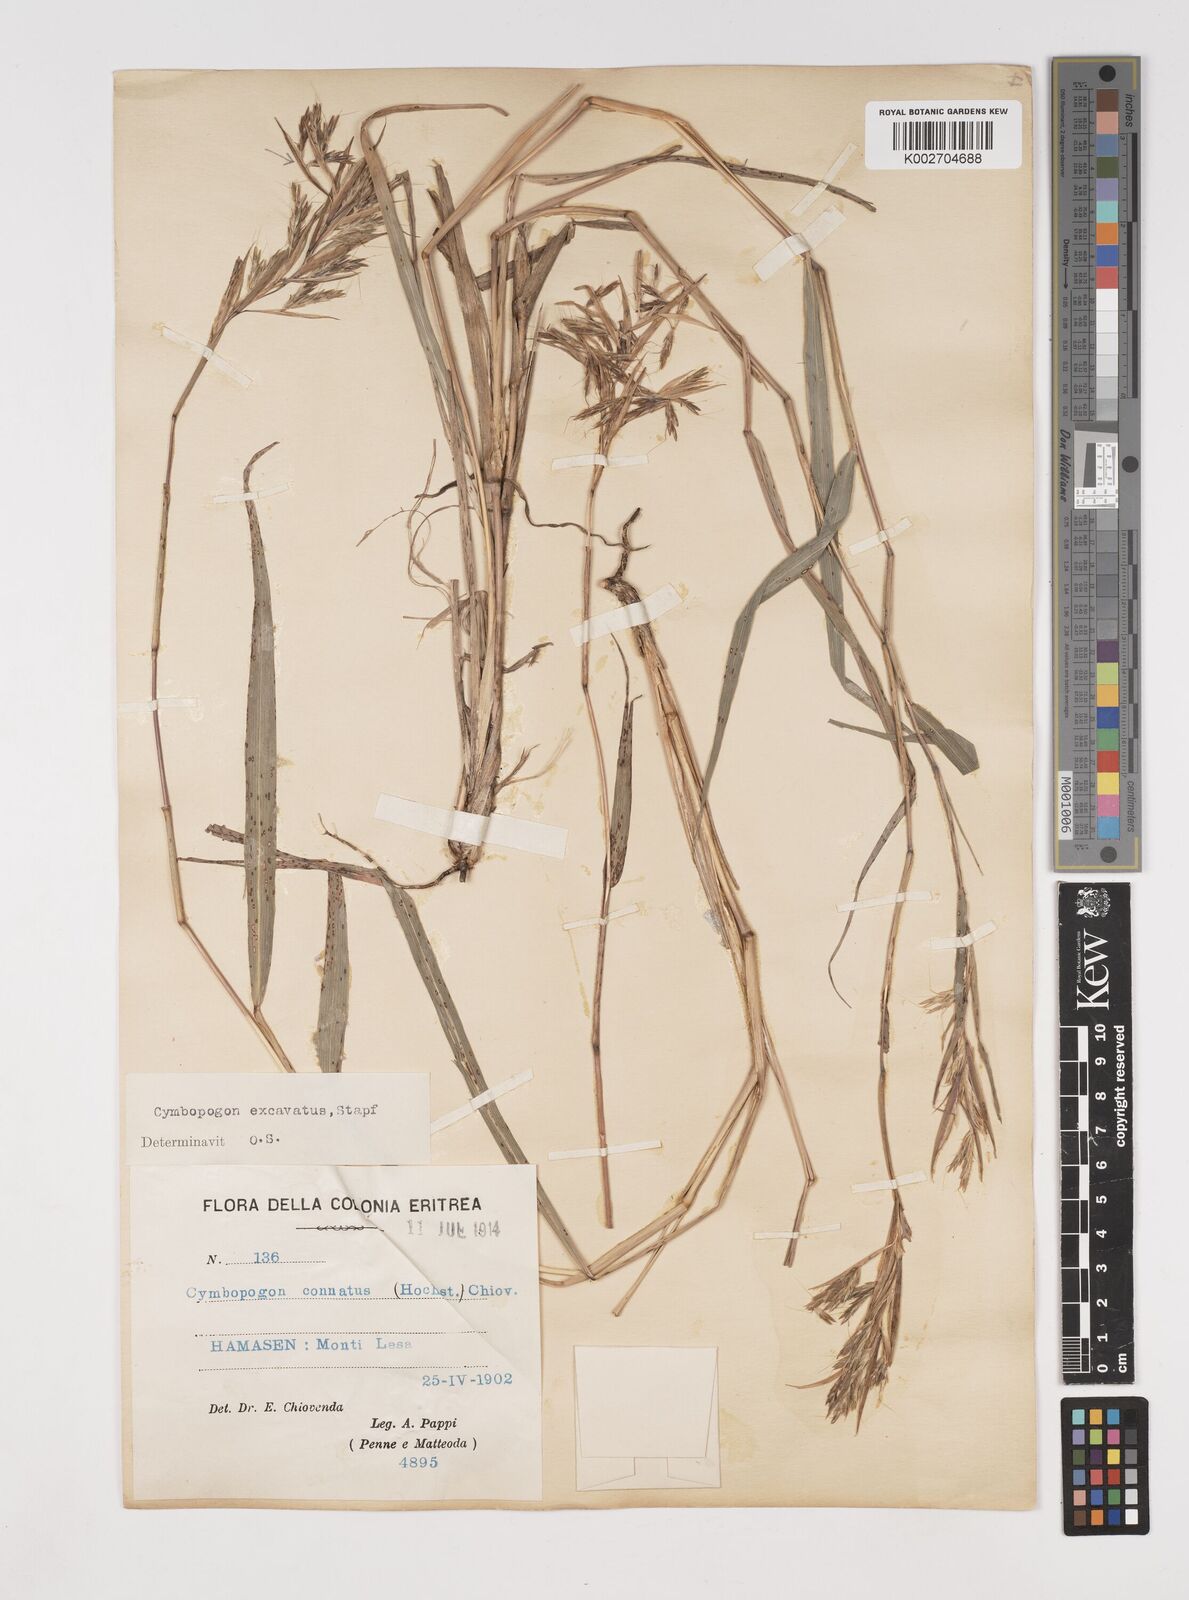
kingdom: Plantae
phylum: Tracheophyta
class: Liliopsida
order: Poales
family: Poaceae
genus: Cymbopogon
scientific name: Cymbopogon
